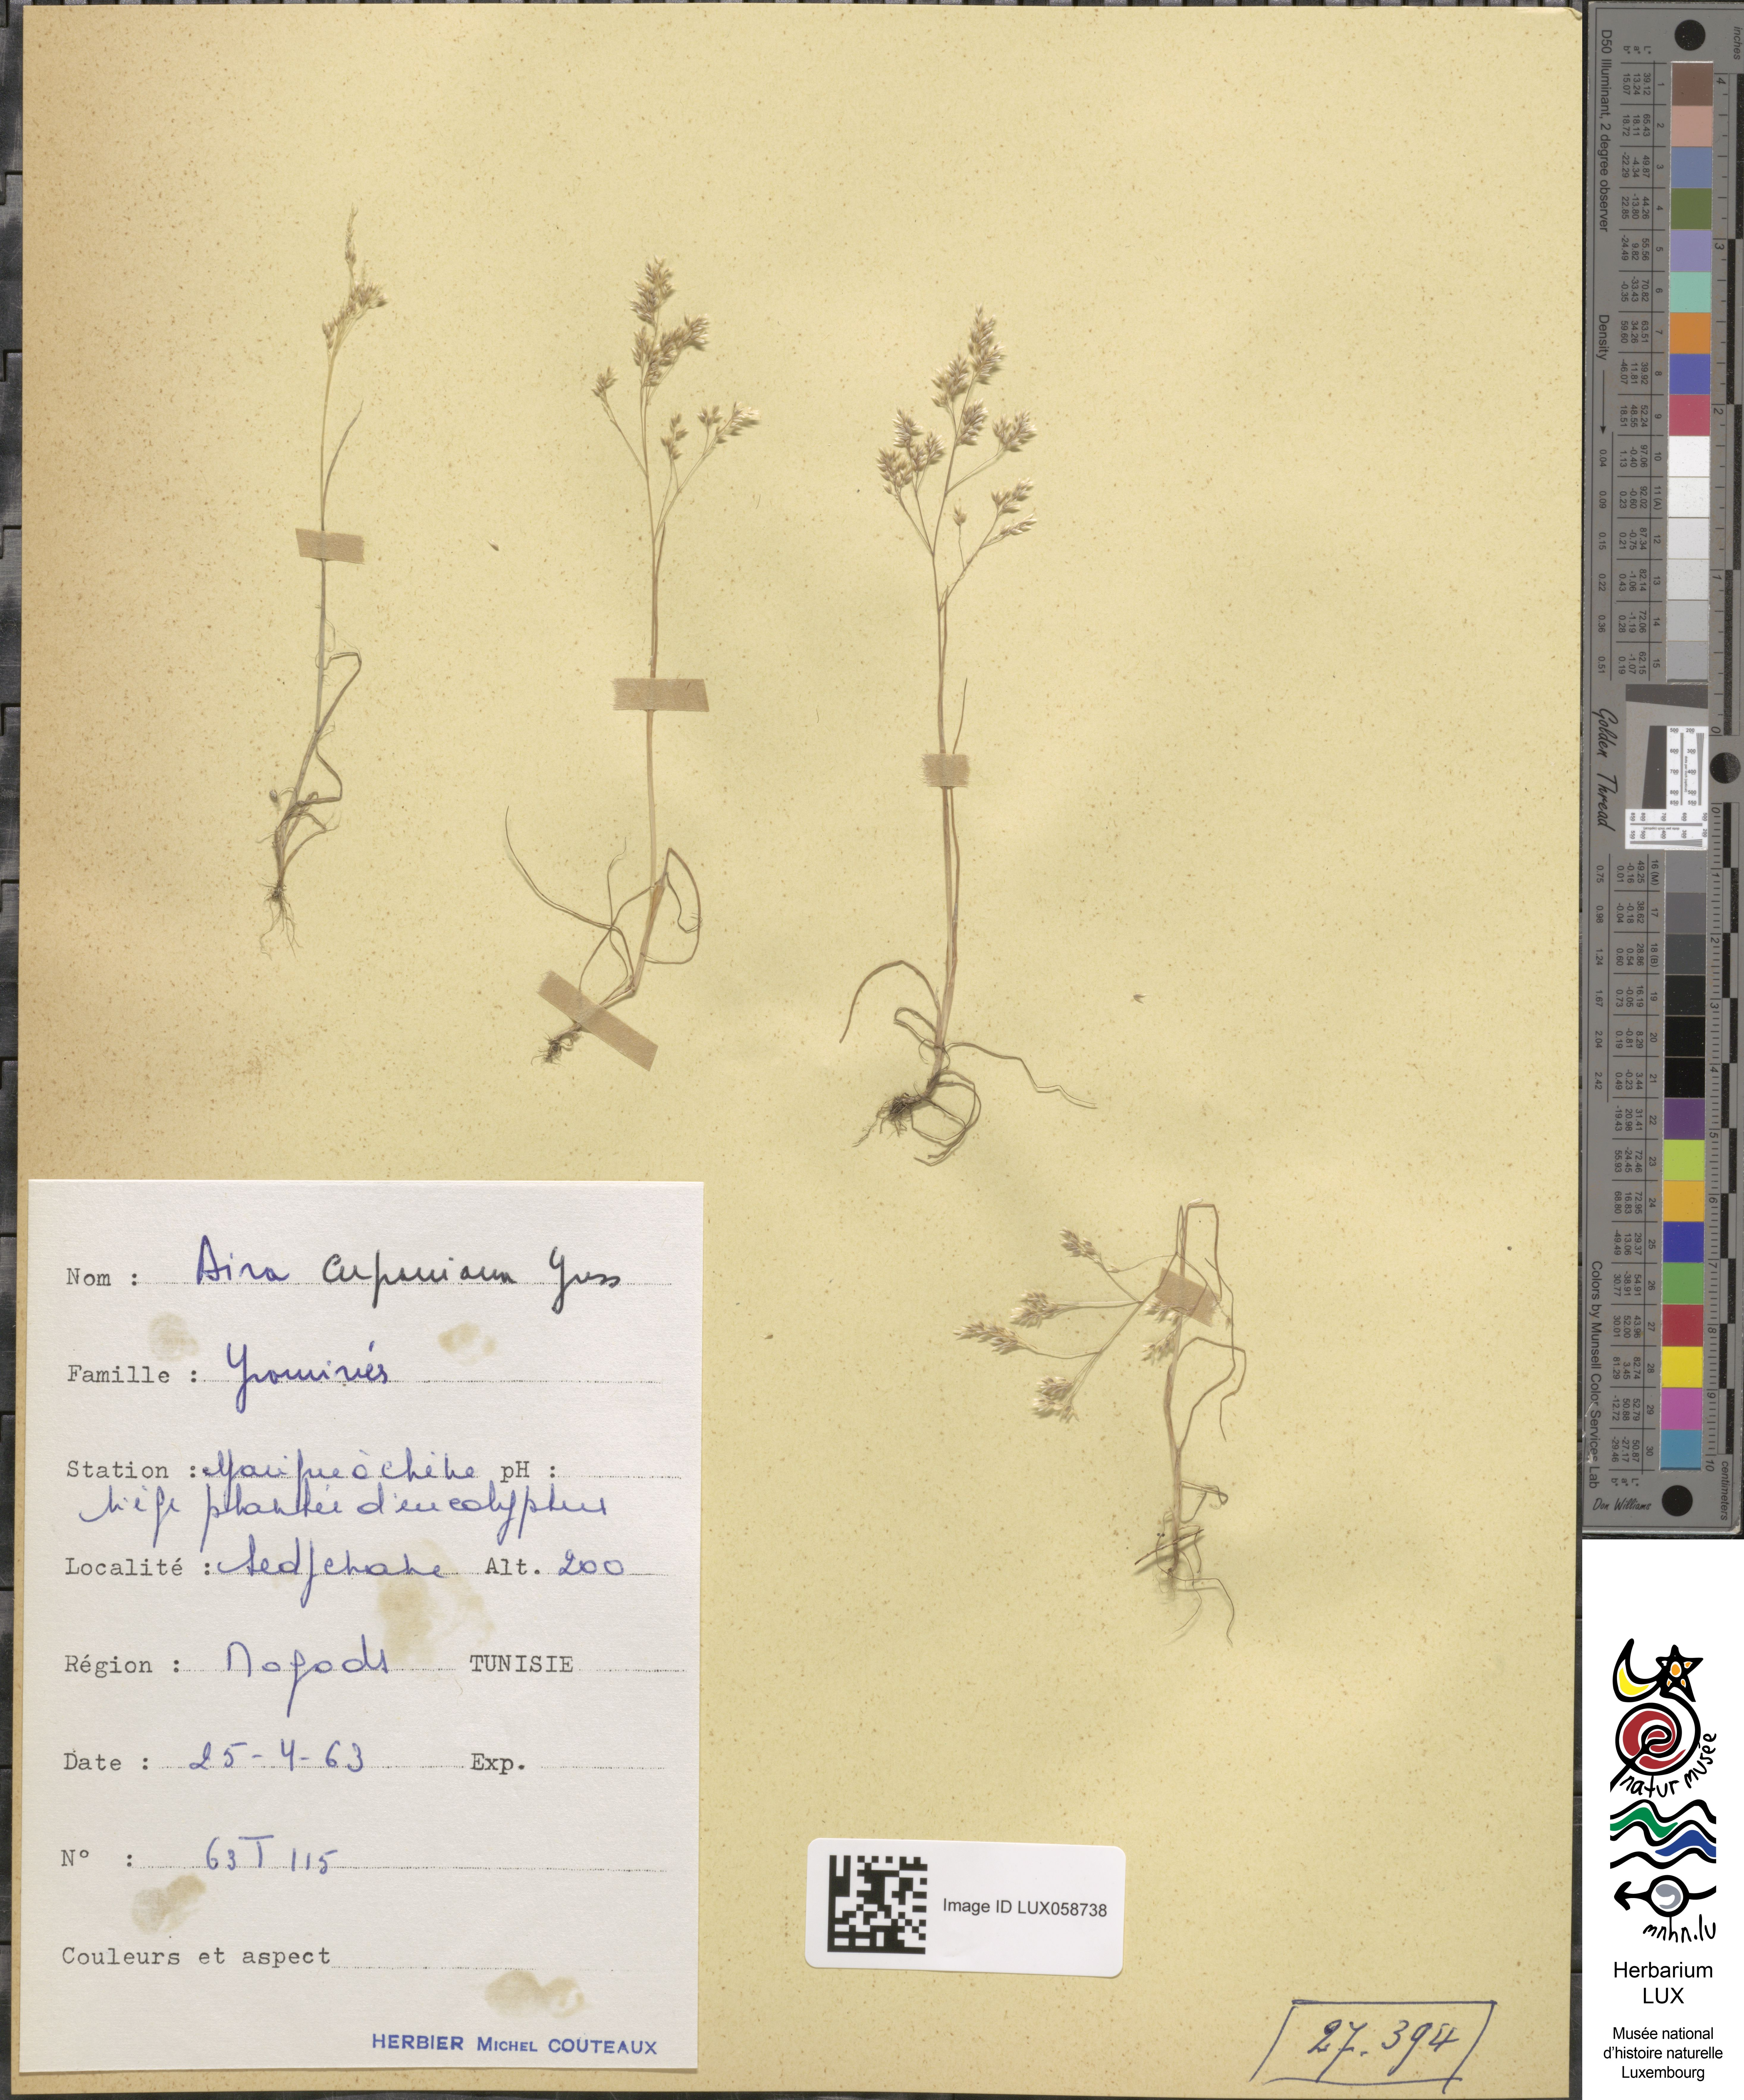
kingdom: Plantae
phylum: Tracheophyta
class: Liliopsida
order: Poales
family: Poaceae
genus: Aira
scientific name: Aira cupaniana
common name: Silver hairgrass
